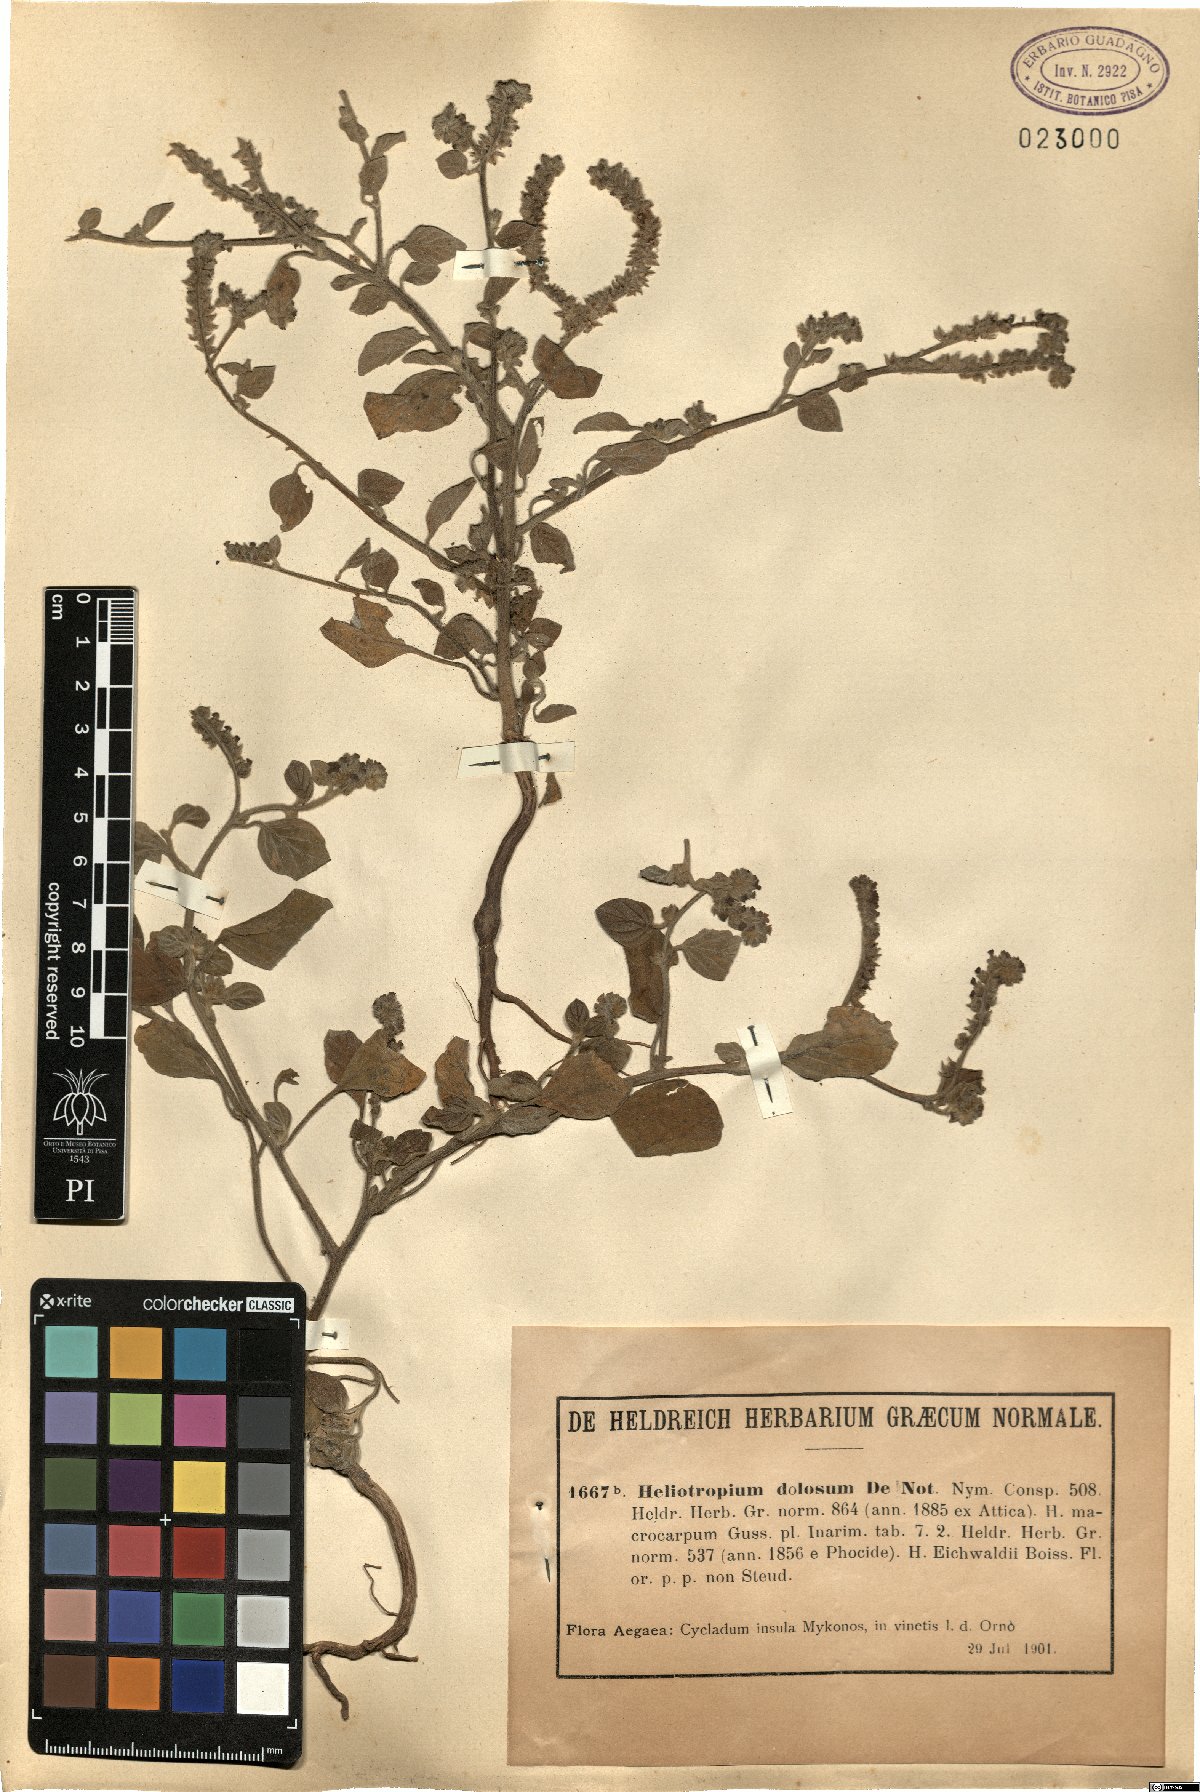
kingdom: Plantae
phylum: Tracheophyta
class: Magnoliopsida
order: Boraginales
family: Heliotropiaceae
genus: Heliotropium
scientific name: Heliotropium dolosum
